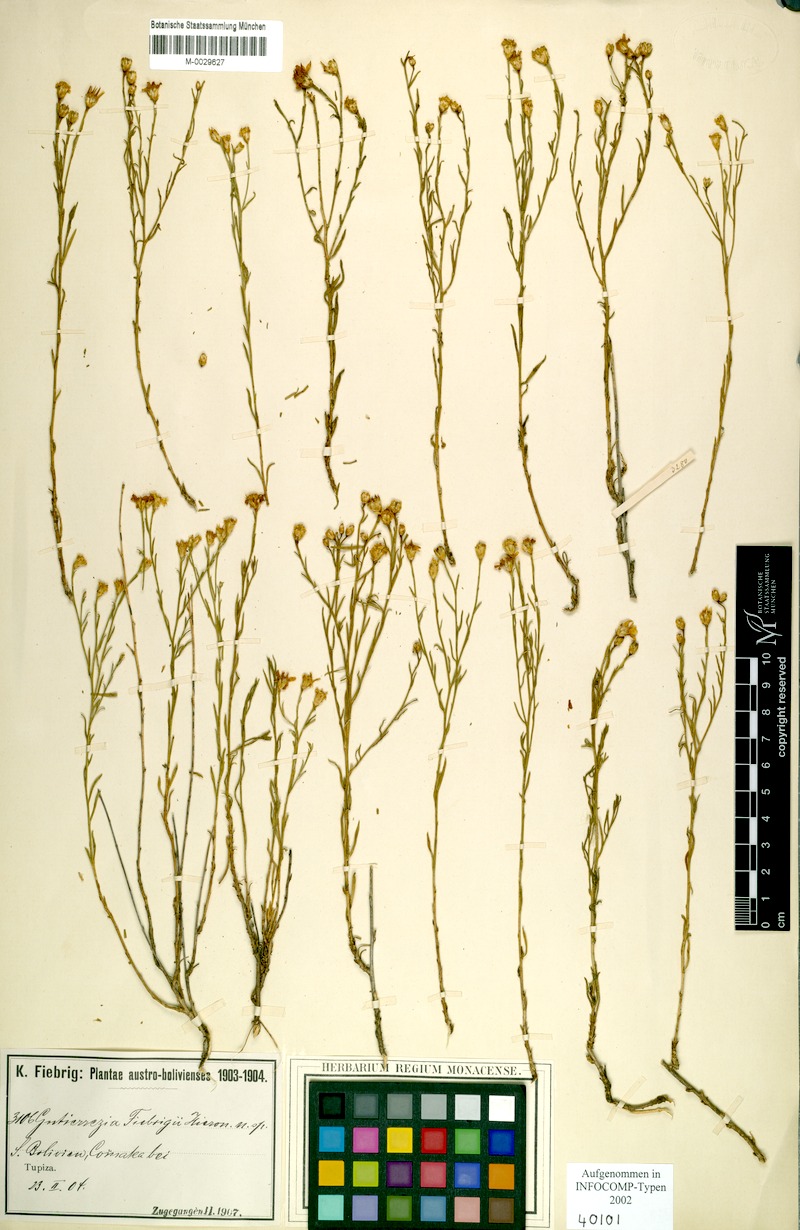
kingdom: Plantae
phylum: Tracheophyta
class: Magnoliopsida
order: Asterales
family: Asteraceae
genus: Gutierrezia
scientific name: Gutierrezia mandonii
